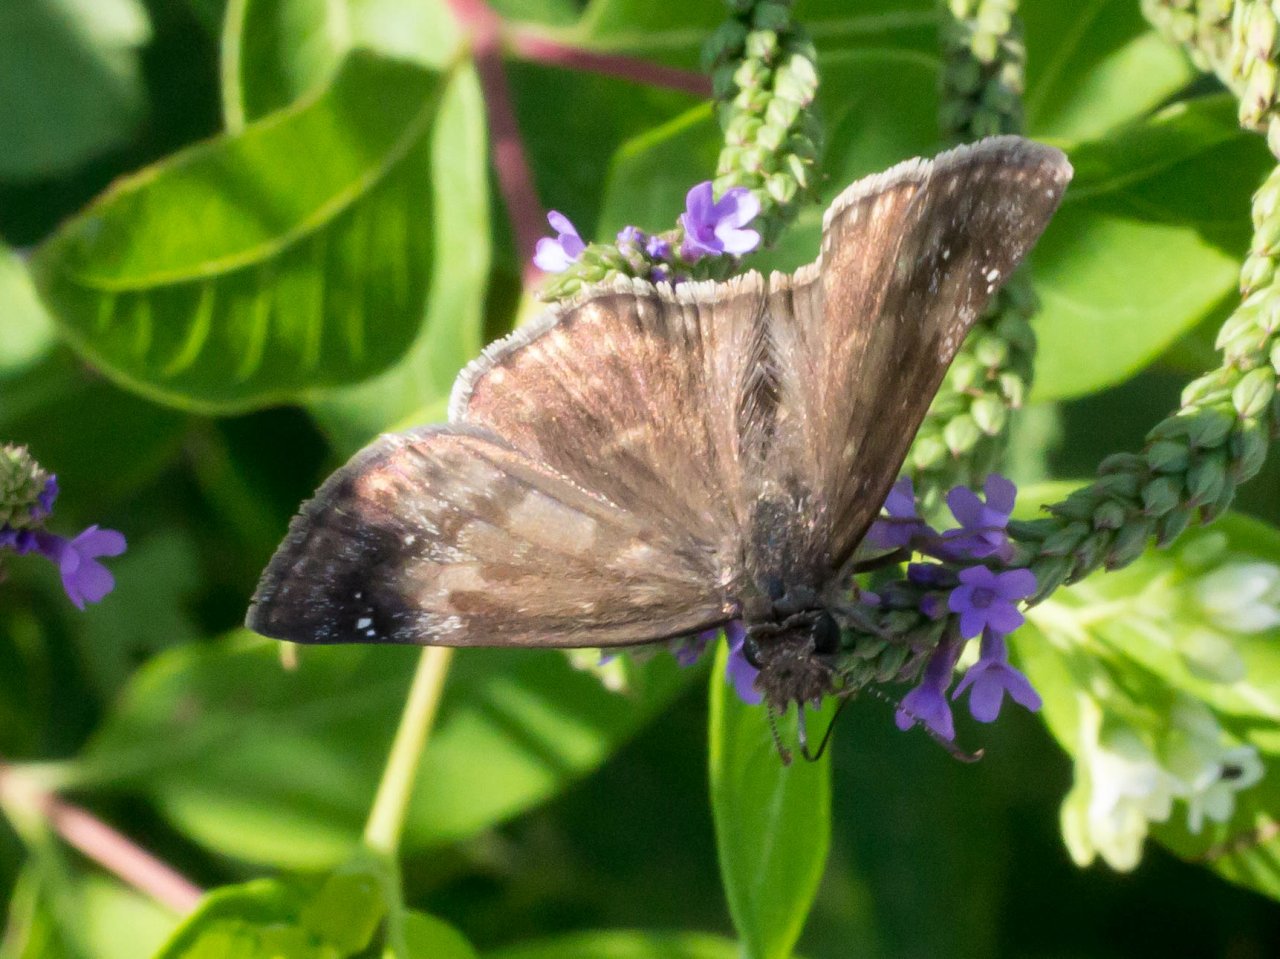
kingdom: Animalia
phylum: Arthropoda
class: Insecta
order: Lepidoptera
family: Hesperiidae
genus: Gesta
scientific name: Gesta
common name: Wild Indigo Duskywing
